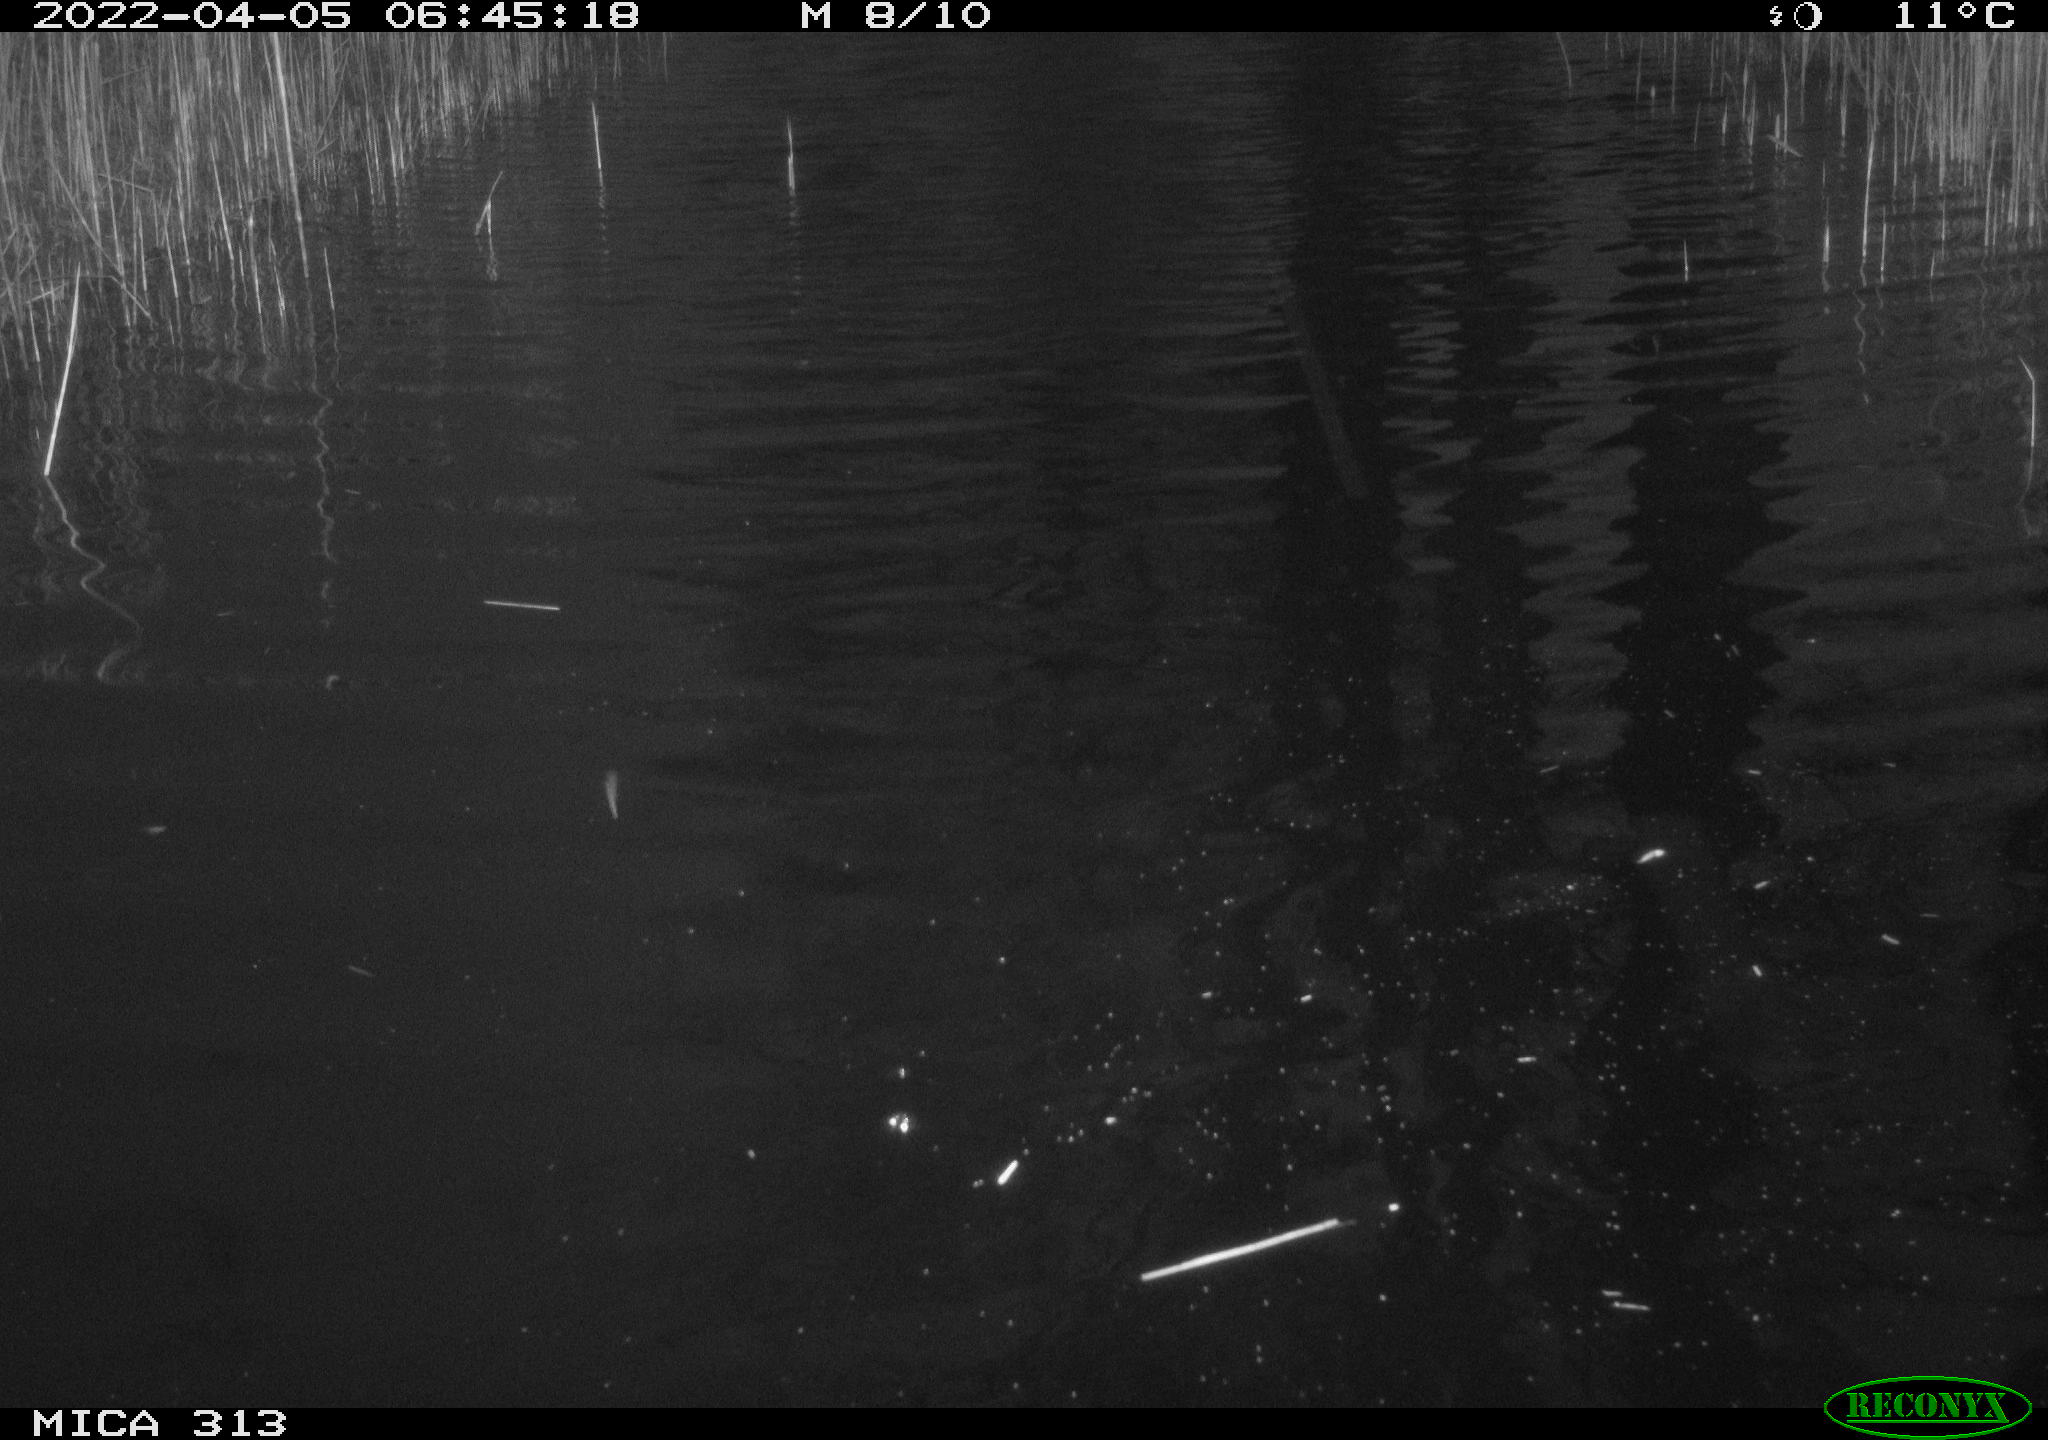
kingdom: Animalia
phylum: Chordata
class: Aves
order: Anseriformes
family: Anatidae
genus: Anas
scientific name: Anas platyrhynchos
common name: Mallard
